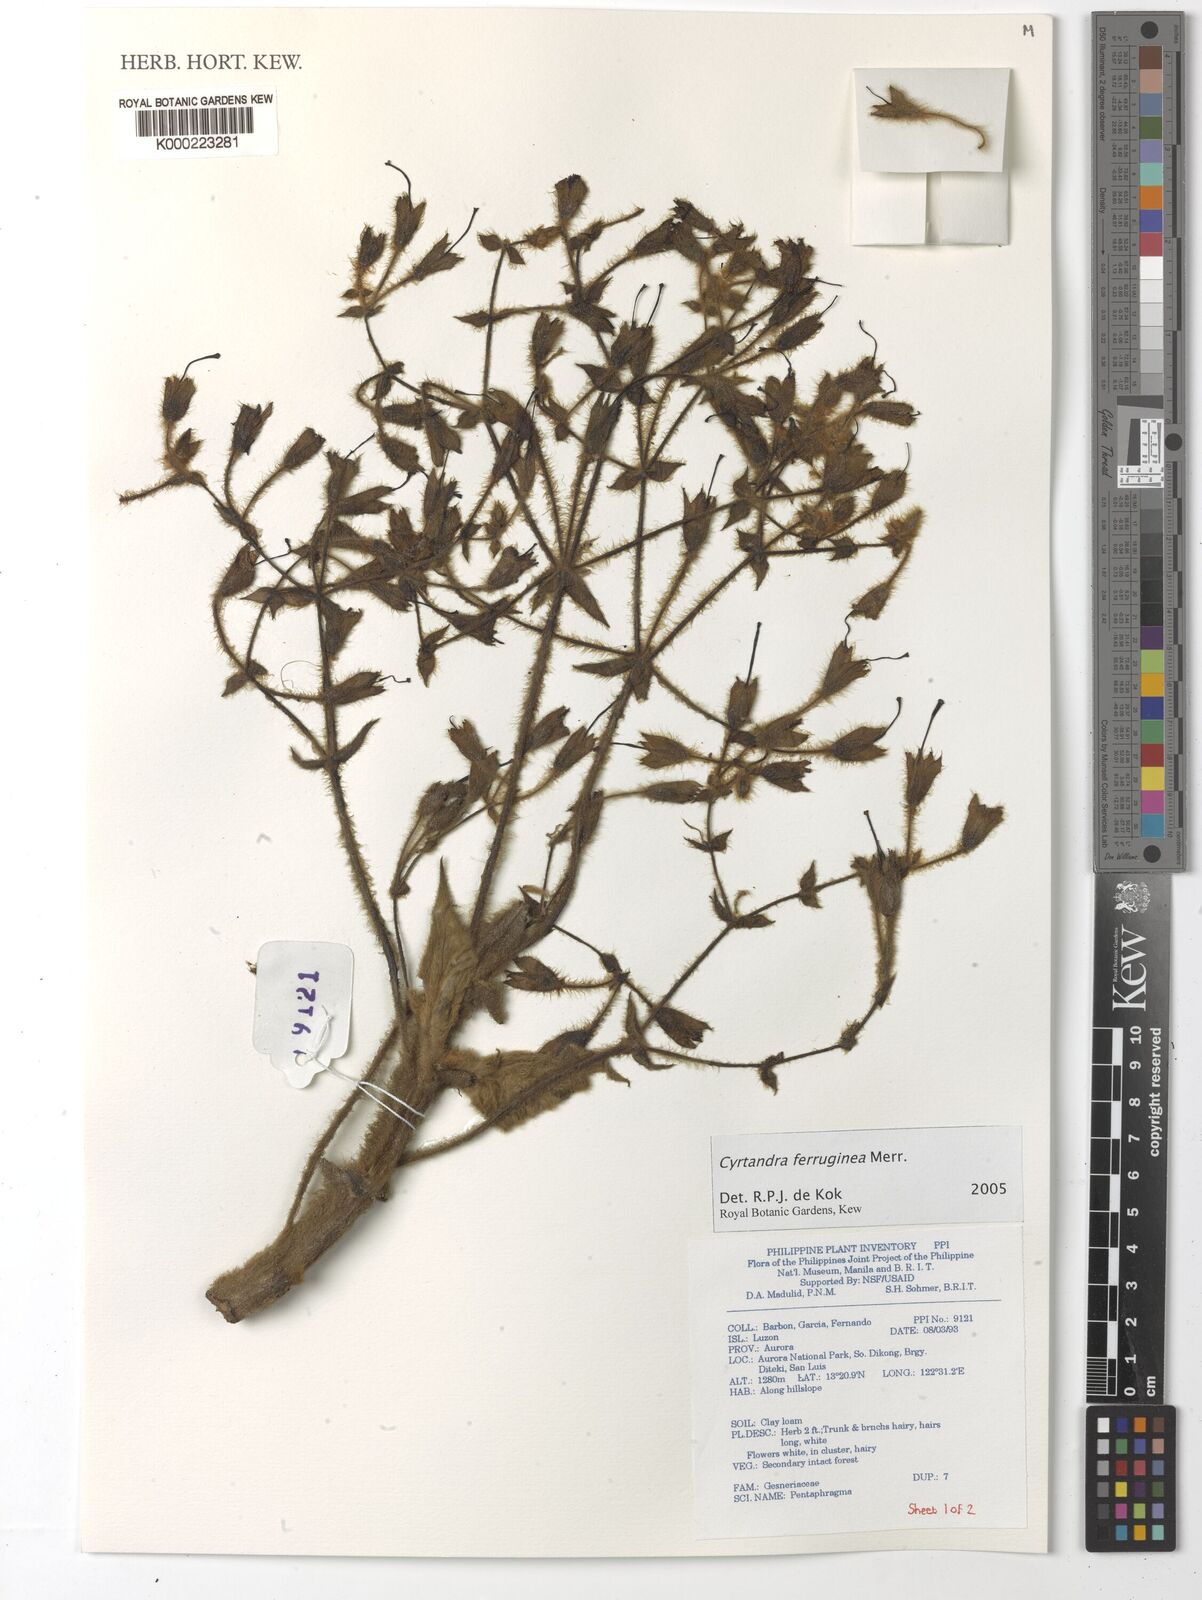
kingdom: Plantae
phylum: Tracheophyta
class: Magnoliopsida
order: Lamiales
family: Gesneriaceae
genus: Cyrtandra
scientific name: Cyrtandra ferruginea
